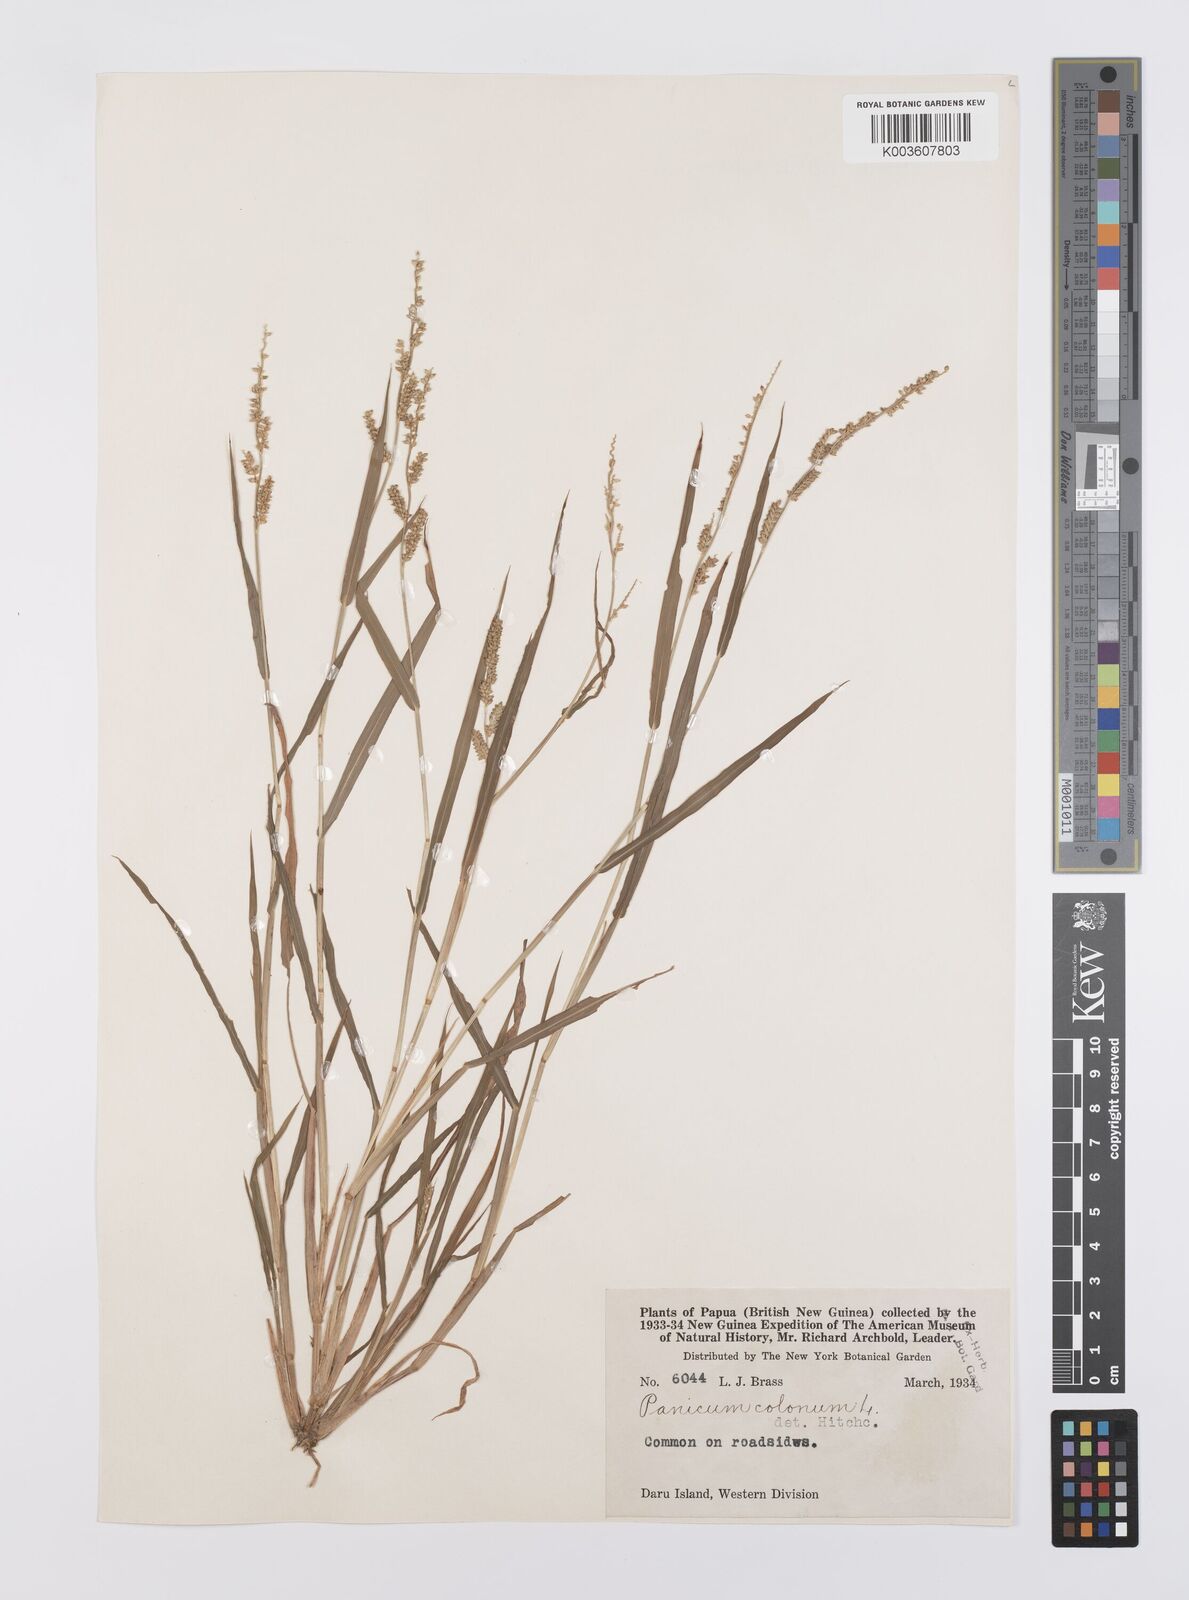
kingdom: Plantae
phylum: Tracheophyta
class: Liliopsida
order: Poales
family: Poaceae
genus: Echinochloa
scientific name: Echinochloa colonum
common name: Jungle rice
